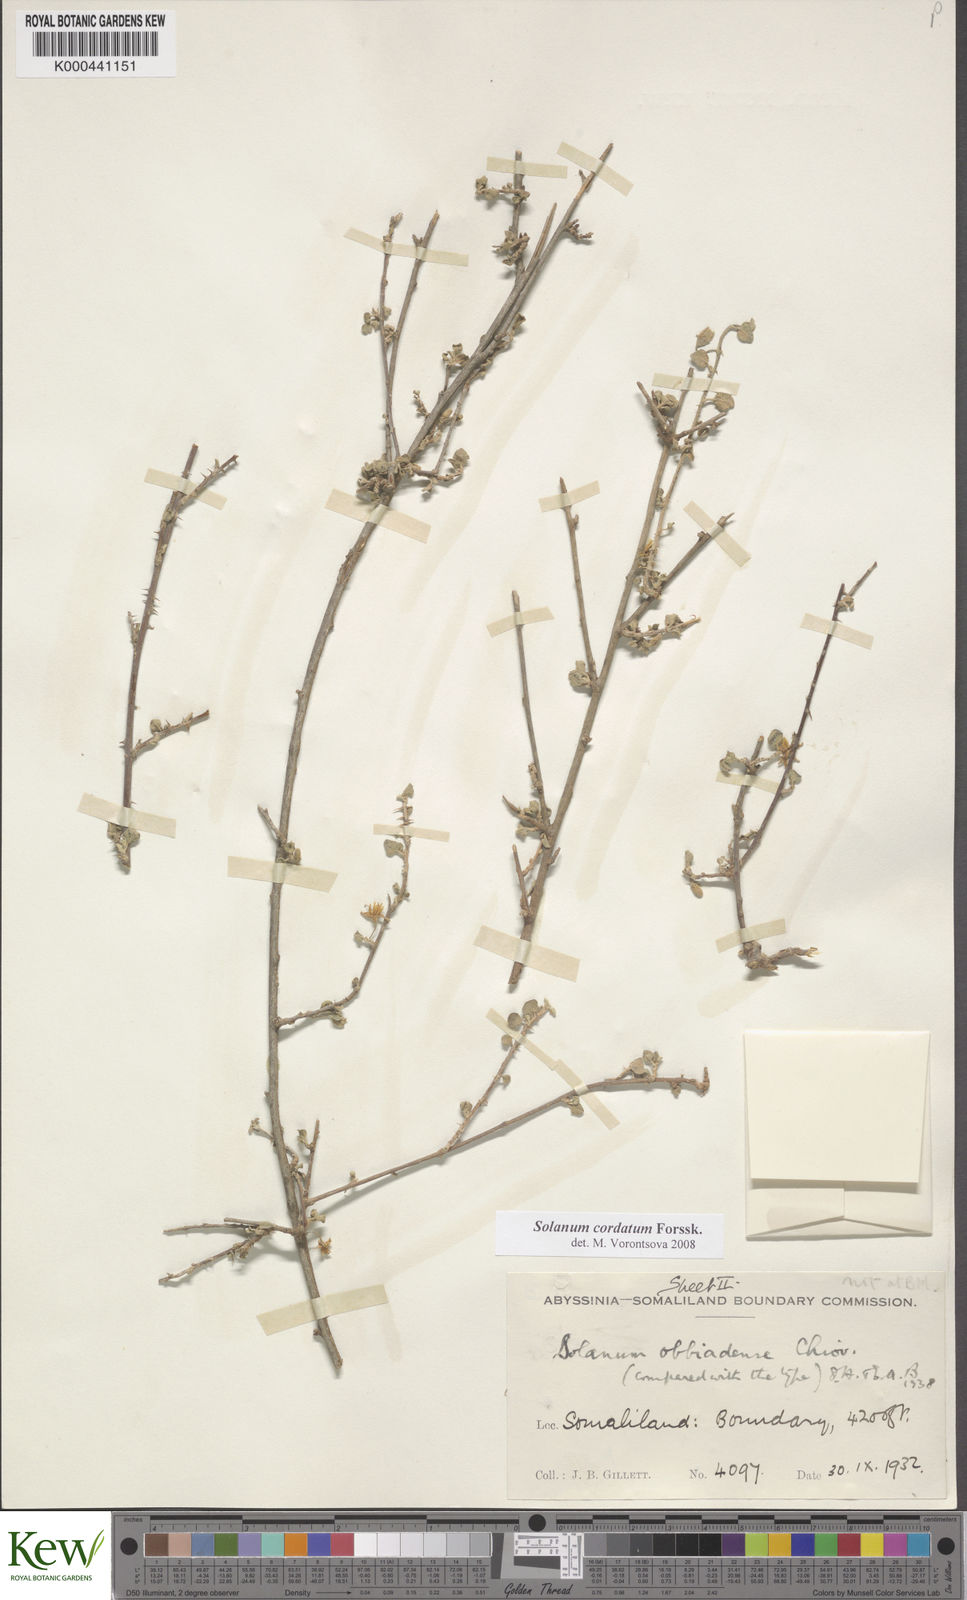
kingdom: Plantae
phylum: Tracheophyta
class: Magnoliopsida
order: Solanales
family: Solanaceae
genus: Solanum
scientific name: Solanum cordatum
